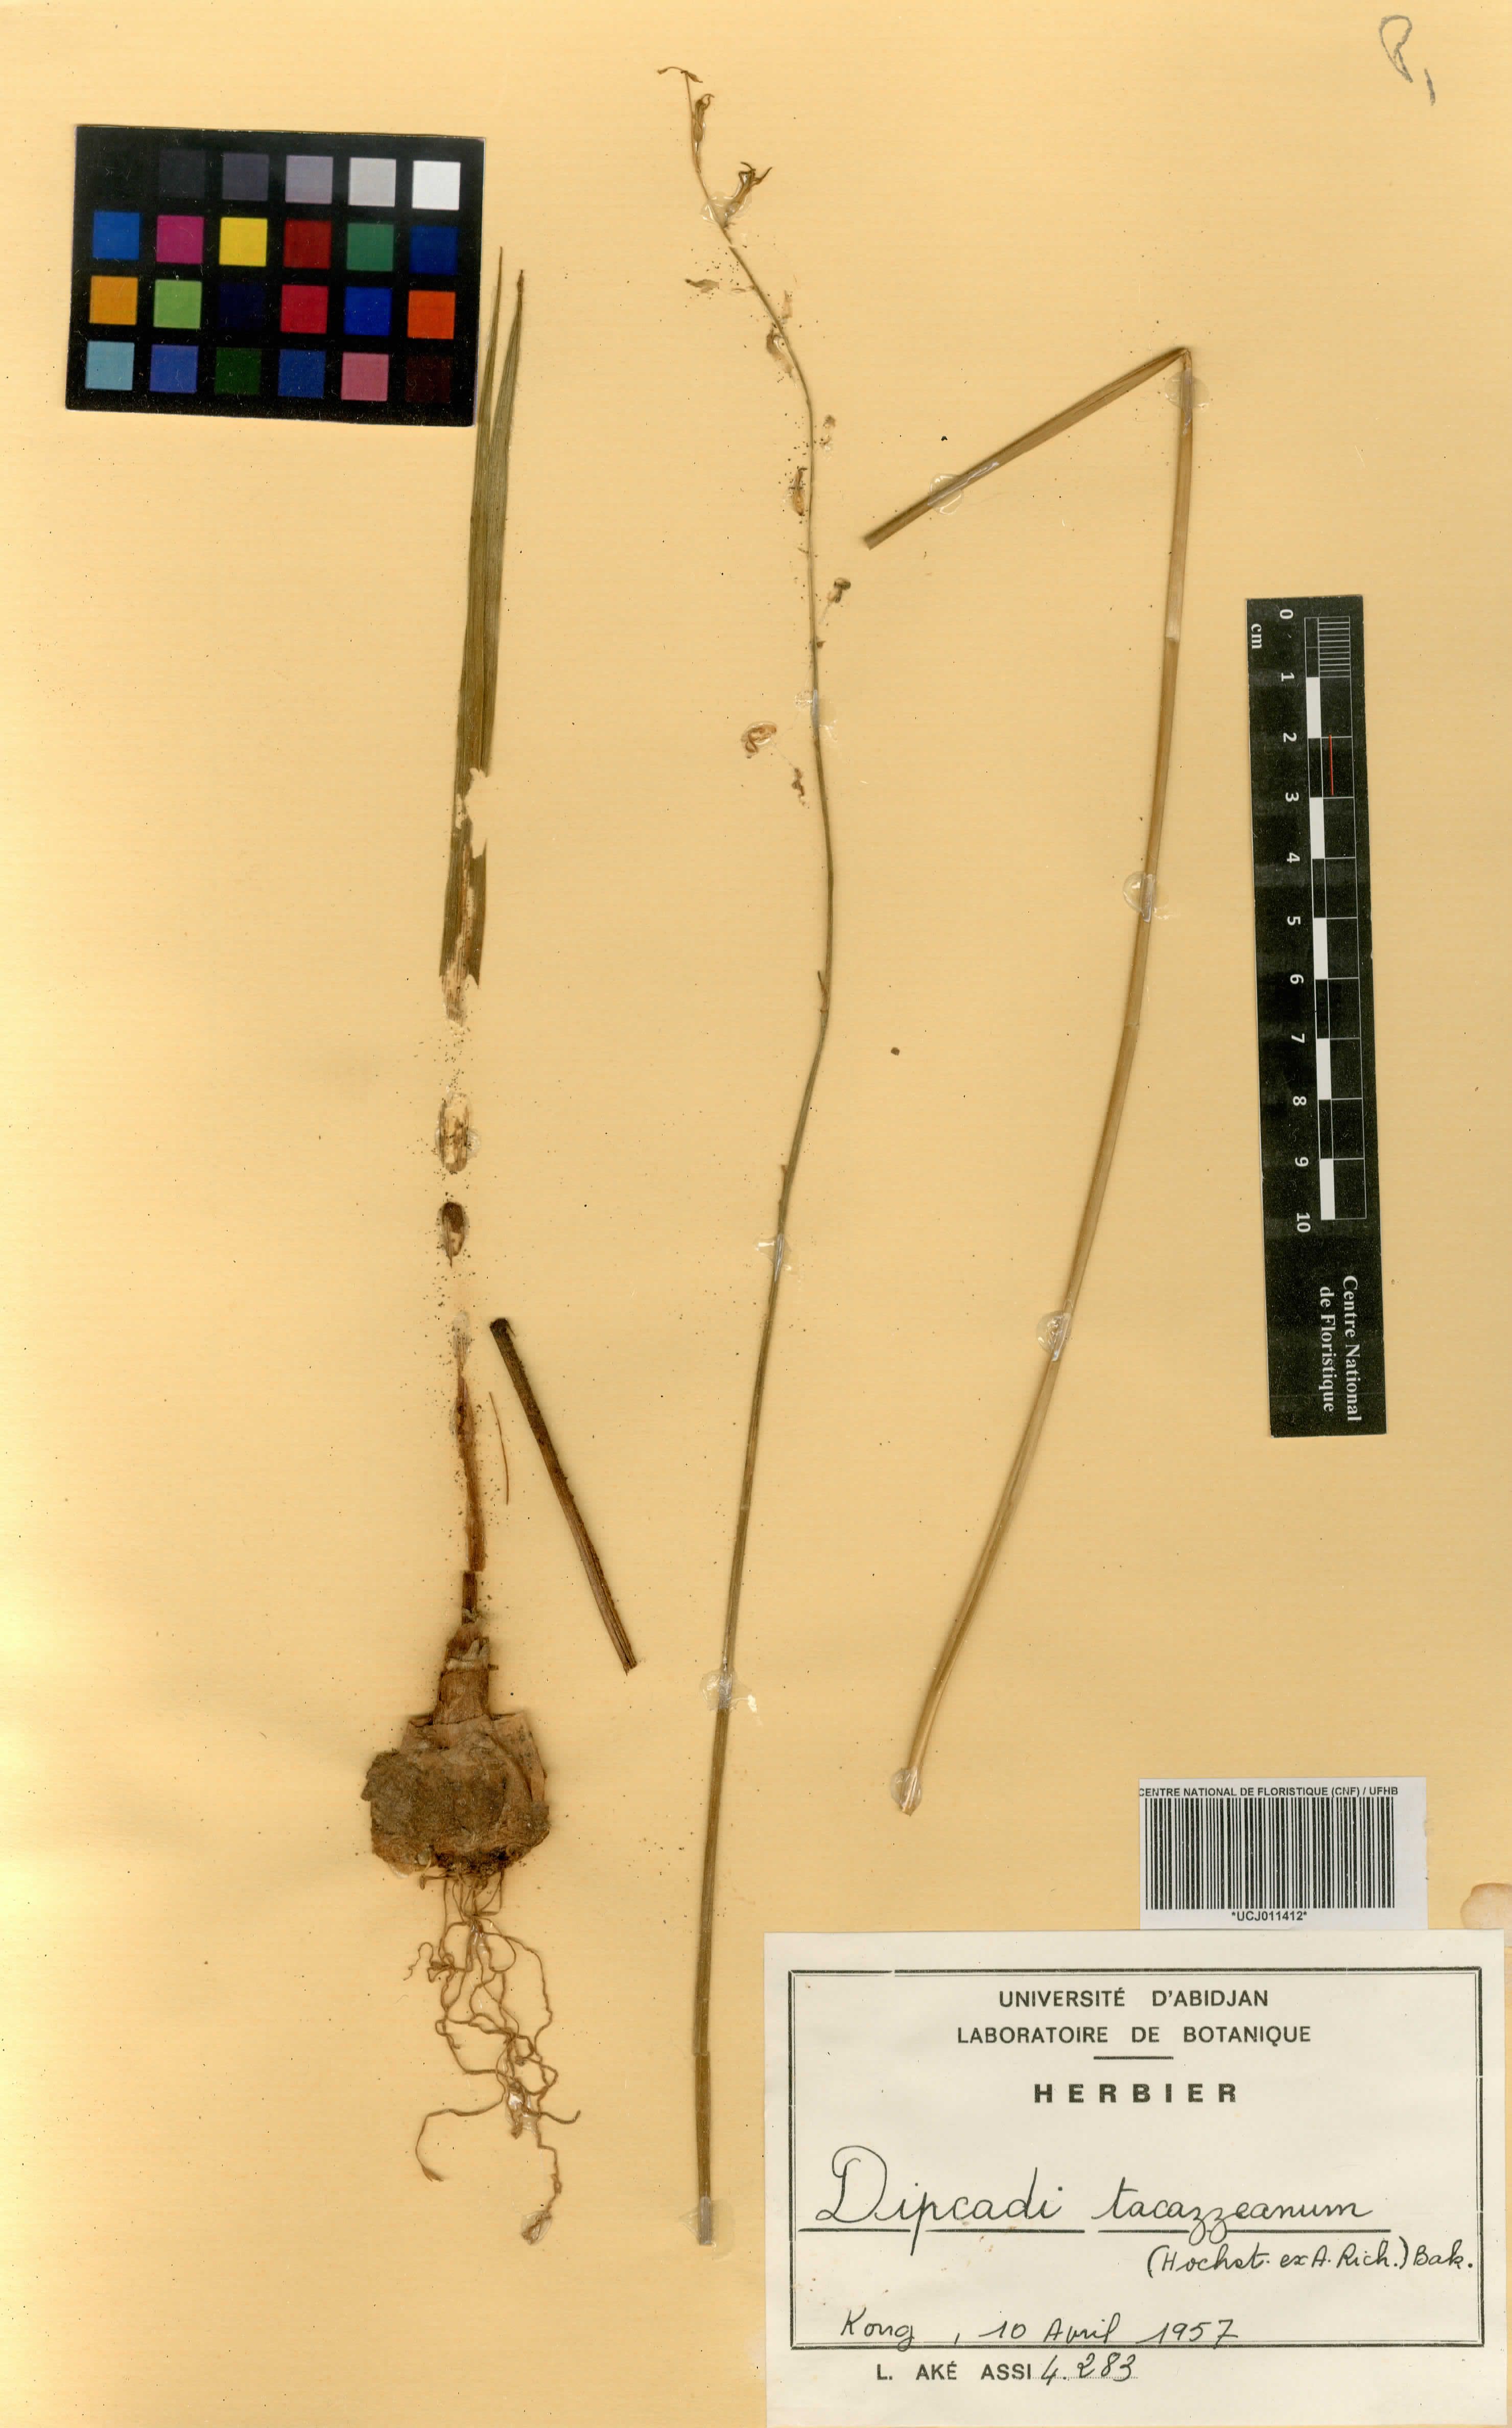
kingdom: Plantae
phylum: Tracheophyta
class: Liliopsida
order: Asparagales
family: Asparagaceae
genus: Dipcadi
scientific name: Dipcadi viride
